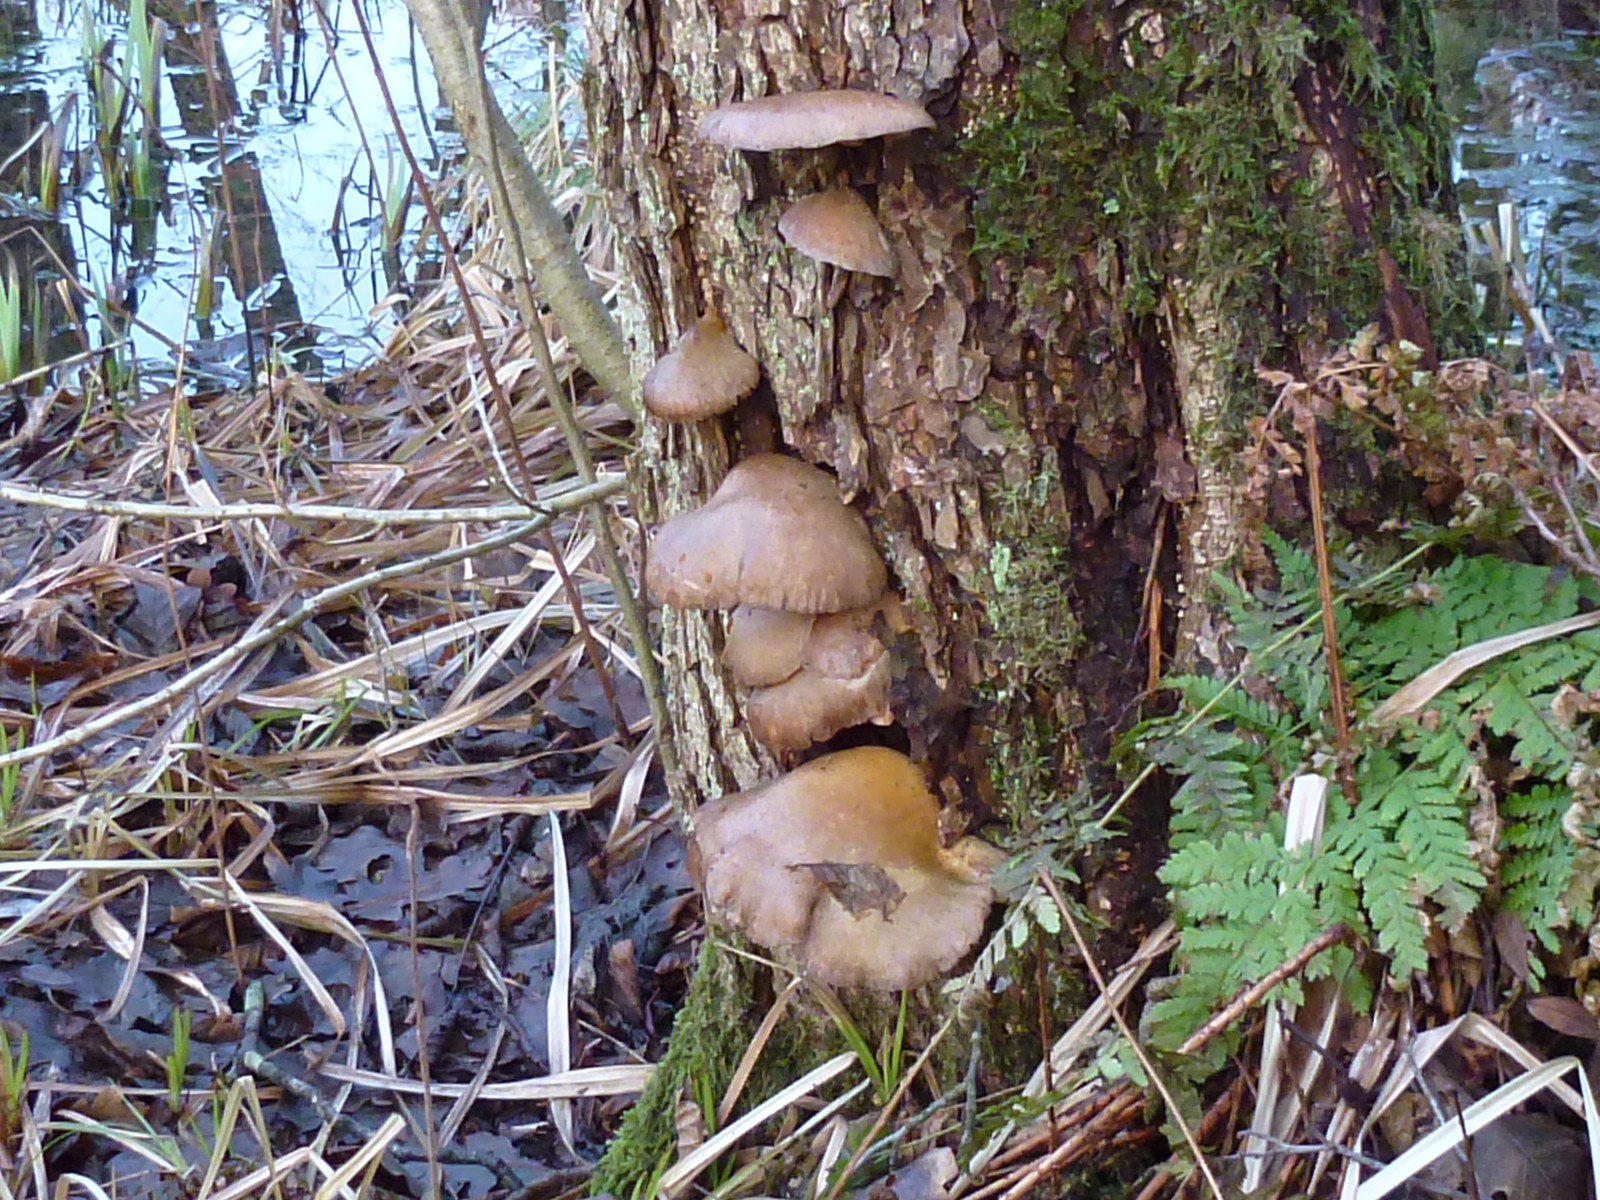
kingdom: Fungi
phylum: Basidiomycota
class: Agaricomycetes
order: Agaricales
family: Sarcomyxaceae
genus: Sarcomyxa
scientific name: Sarcomyxa serotina
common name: gummihat
